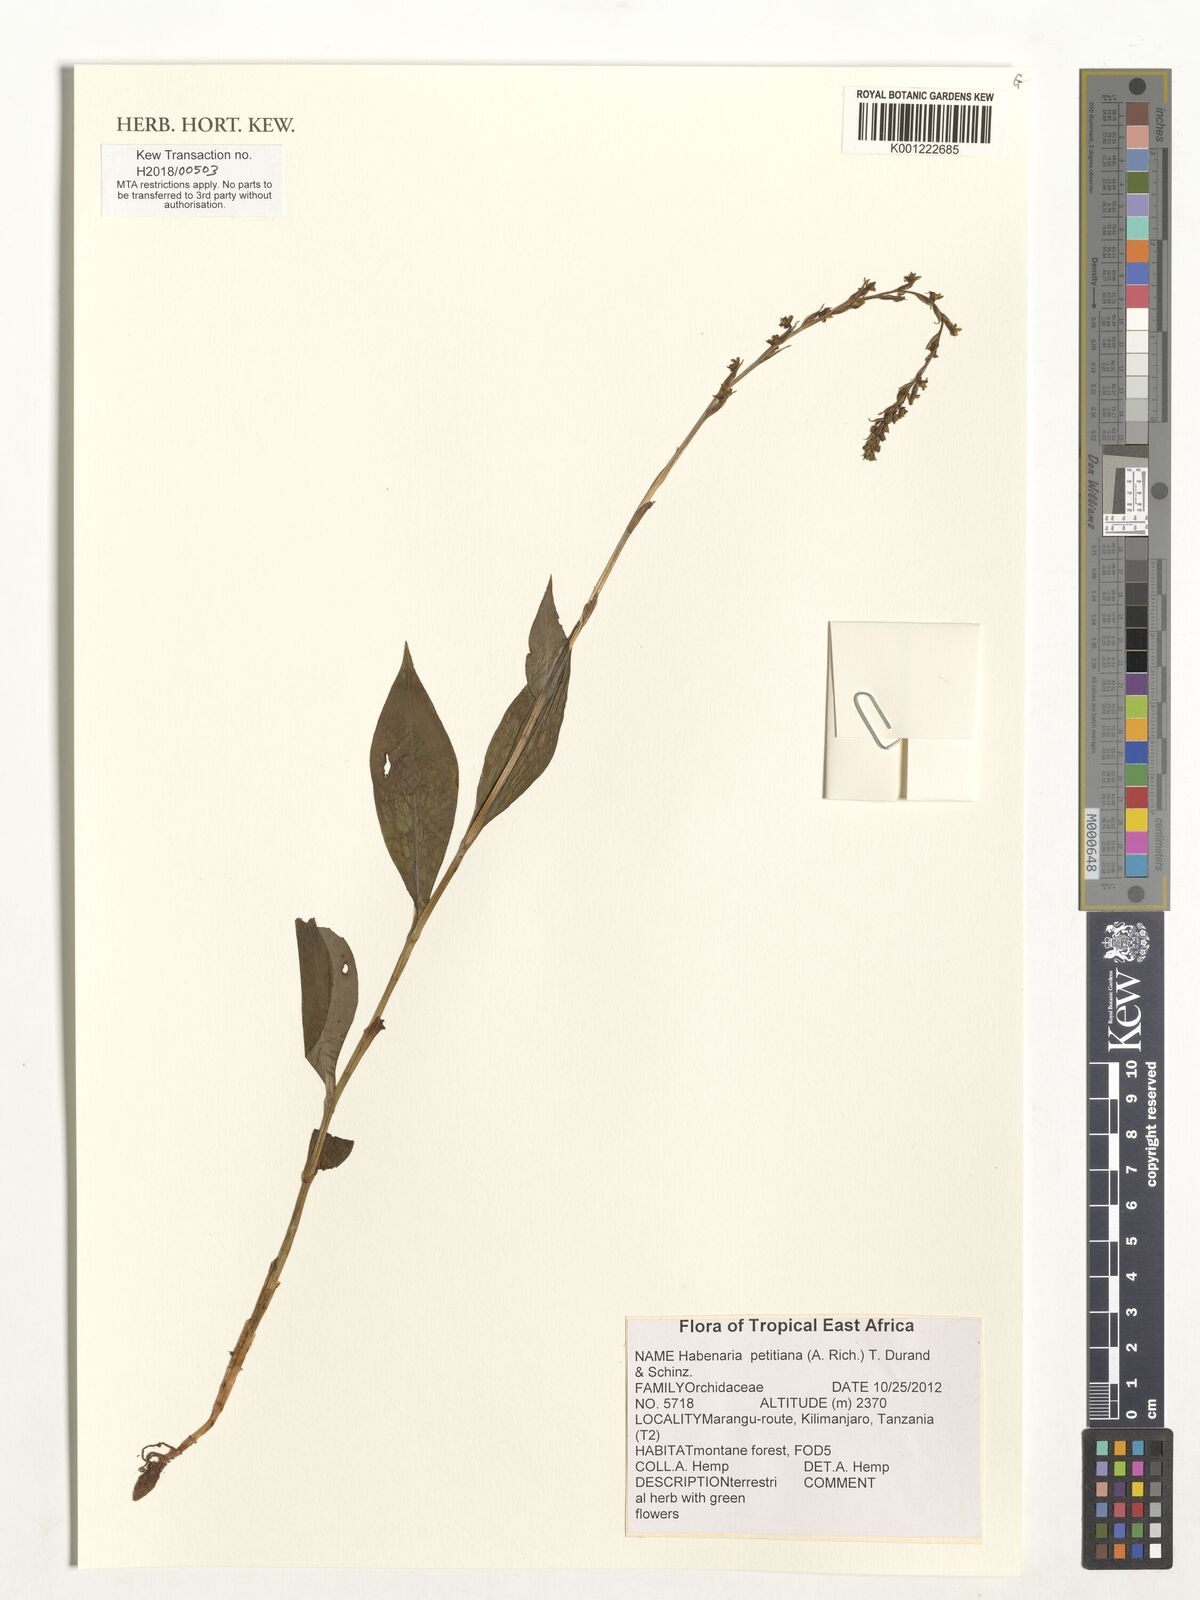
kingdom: Plantae
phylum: Tracheophyta
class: Liliopsida
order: Asparagales
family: Orchidaceae
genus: Habenaria
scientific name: Habenaria petitiana
